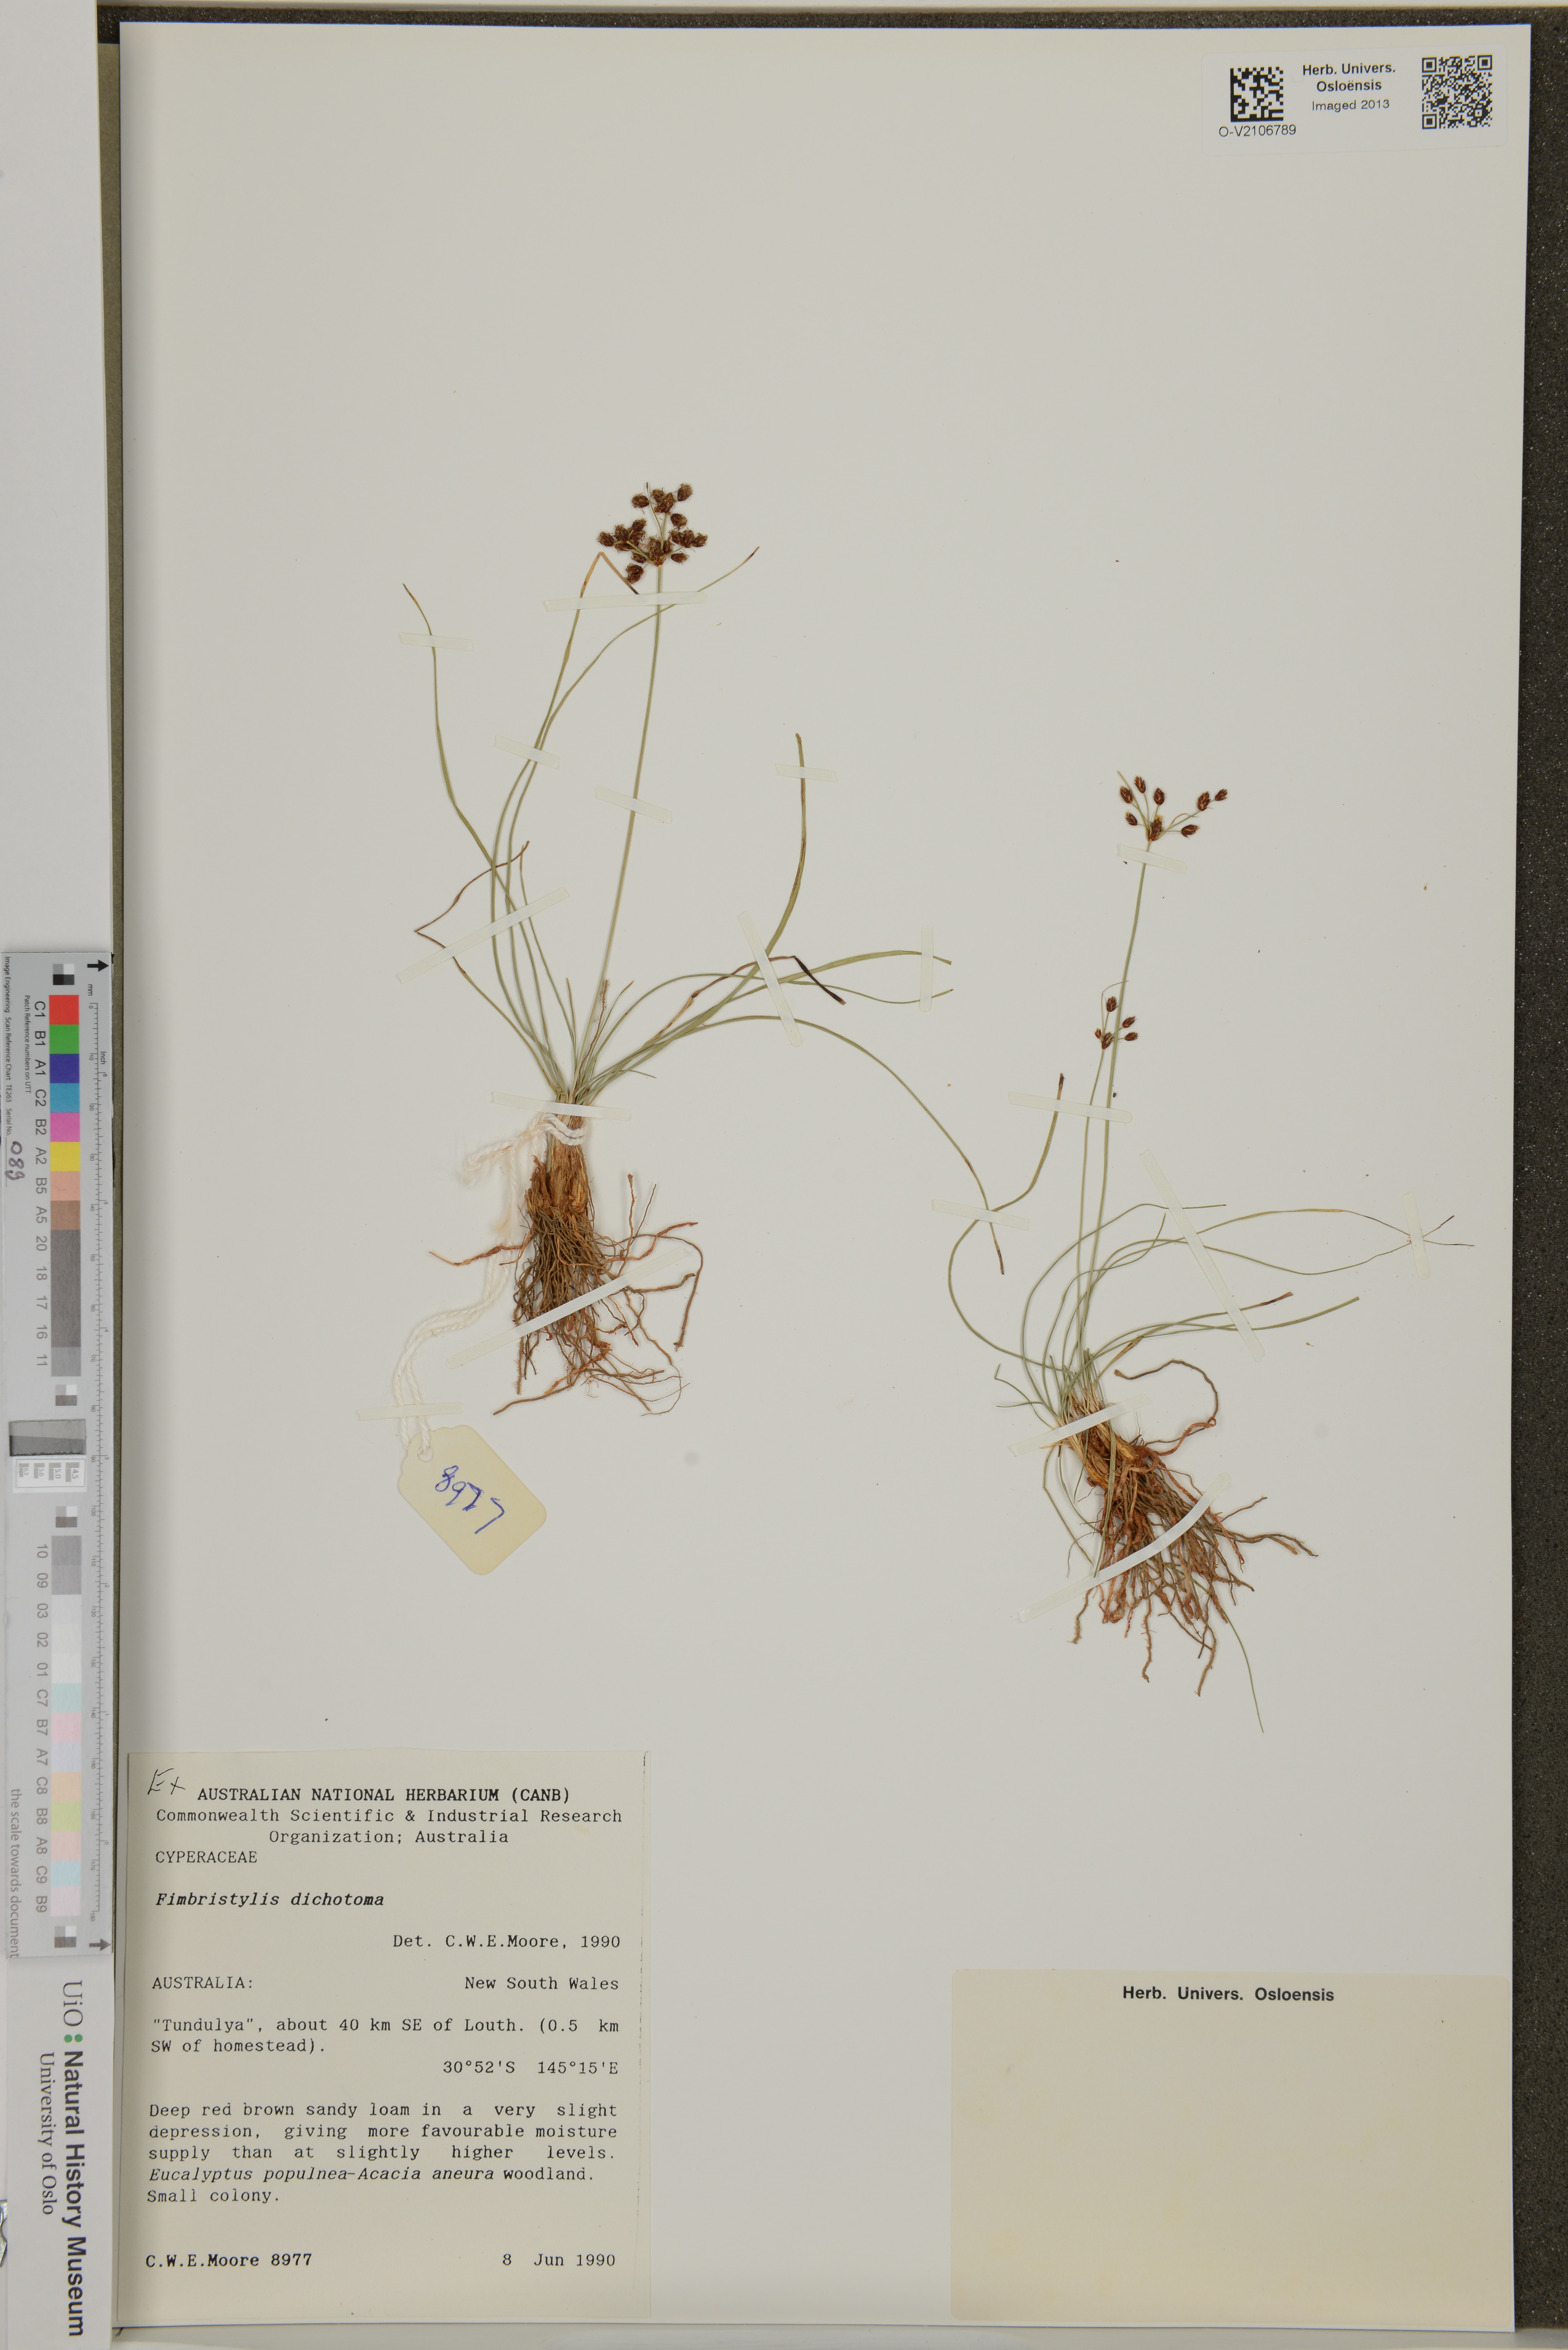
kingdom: Plantae
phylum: Tracheophyta
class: Liliopsida
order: Poales
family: Cyperaceae
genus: Fimbristylis
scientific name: Fimbristylis dichotoma
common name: Forked fimbry
